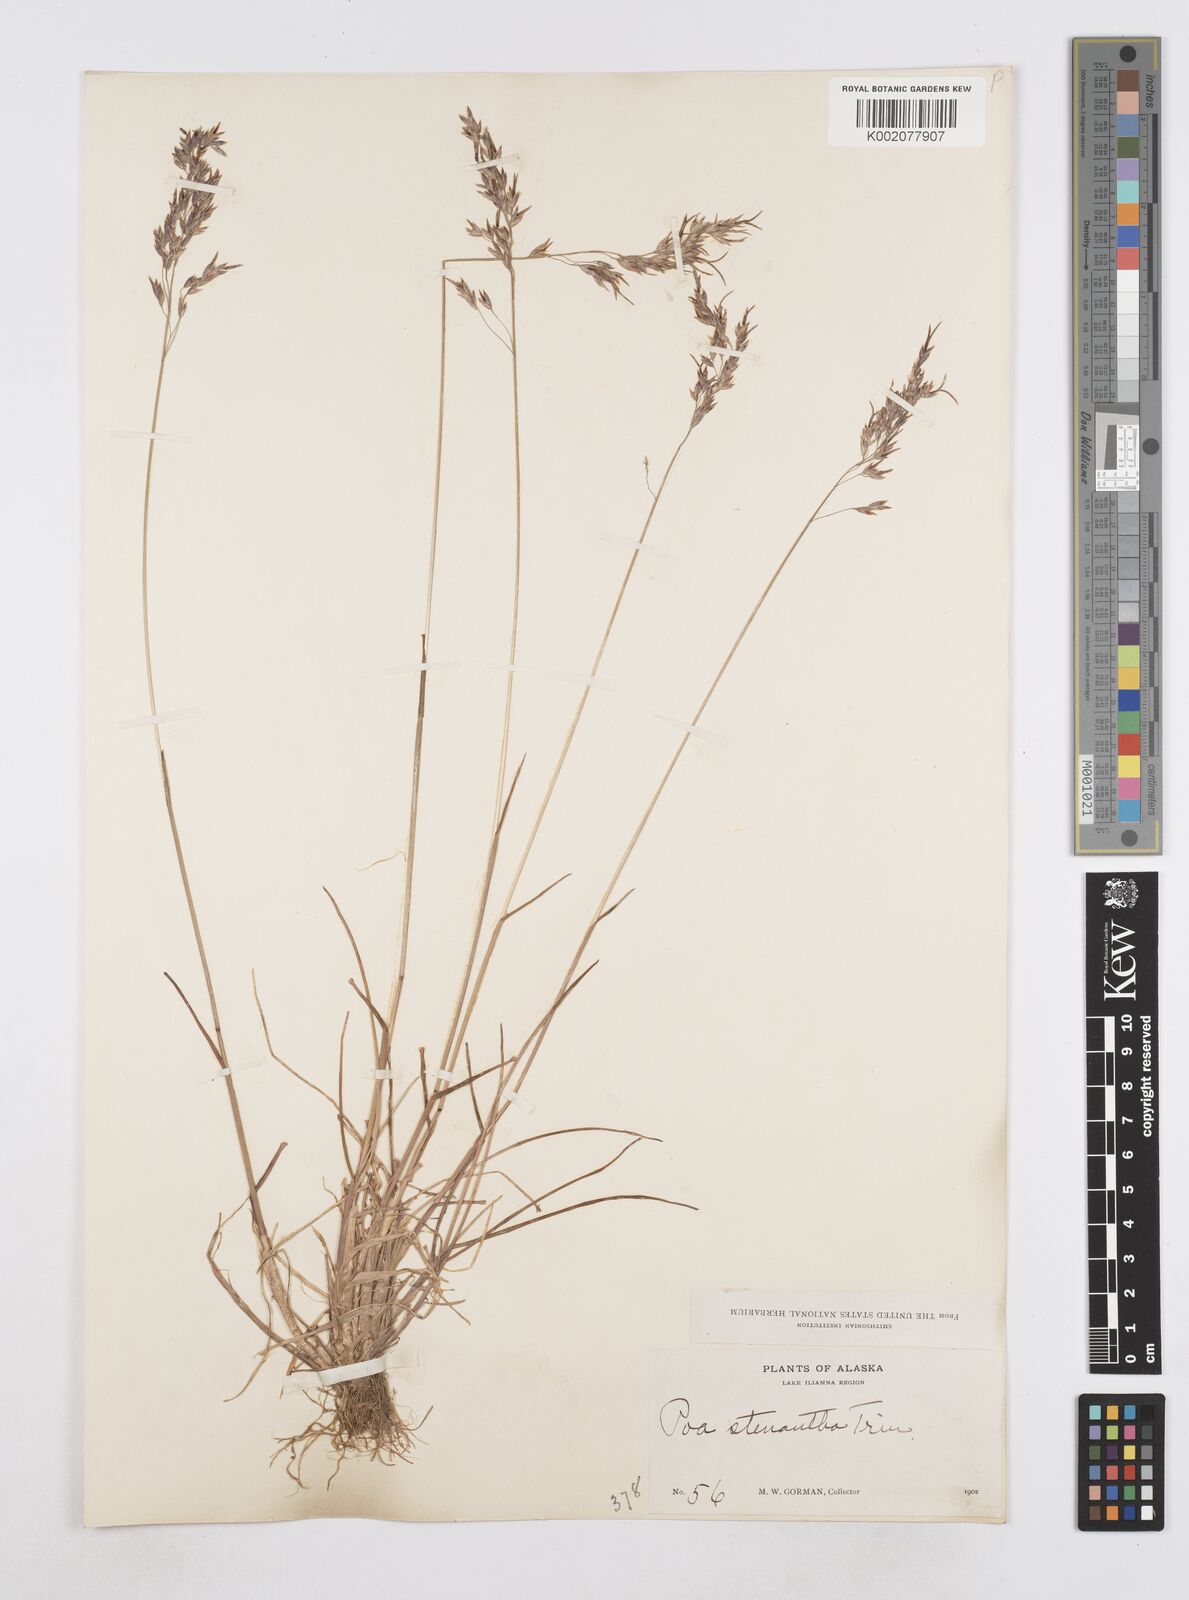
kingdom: Plantae
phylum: Tracheophyta
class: Liliopsida
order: Poales
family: Poaceae
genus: Poa
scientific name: Poa stenantha
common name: Narrow-flowered bluegrass
